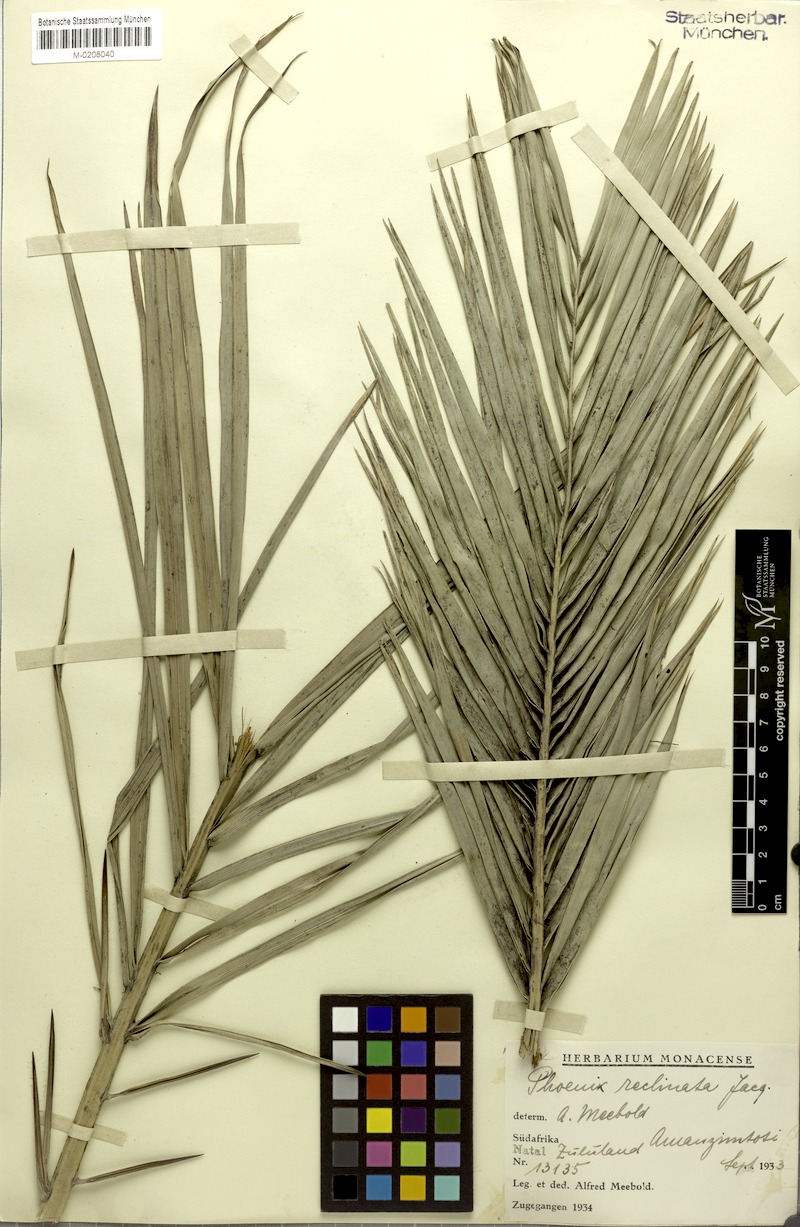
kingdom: Plantae
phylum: Tracheophyta
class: Liliopsida
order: Arecales
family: Arecaceae
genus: Phoenix
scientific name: Phoenix reclinata
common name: Senegal date palm
